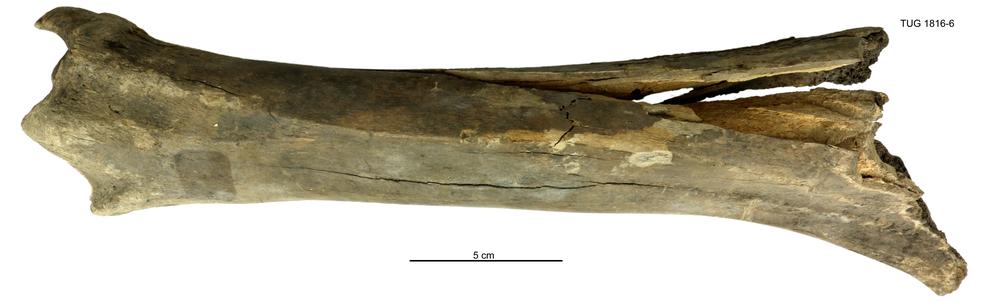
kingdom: Animalia
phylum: Chordata
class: Mammalia
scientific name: Mammalia
